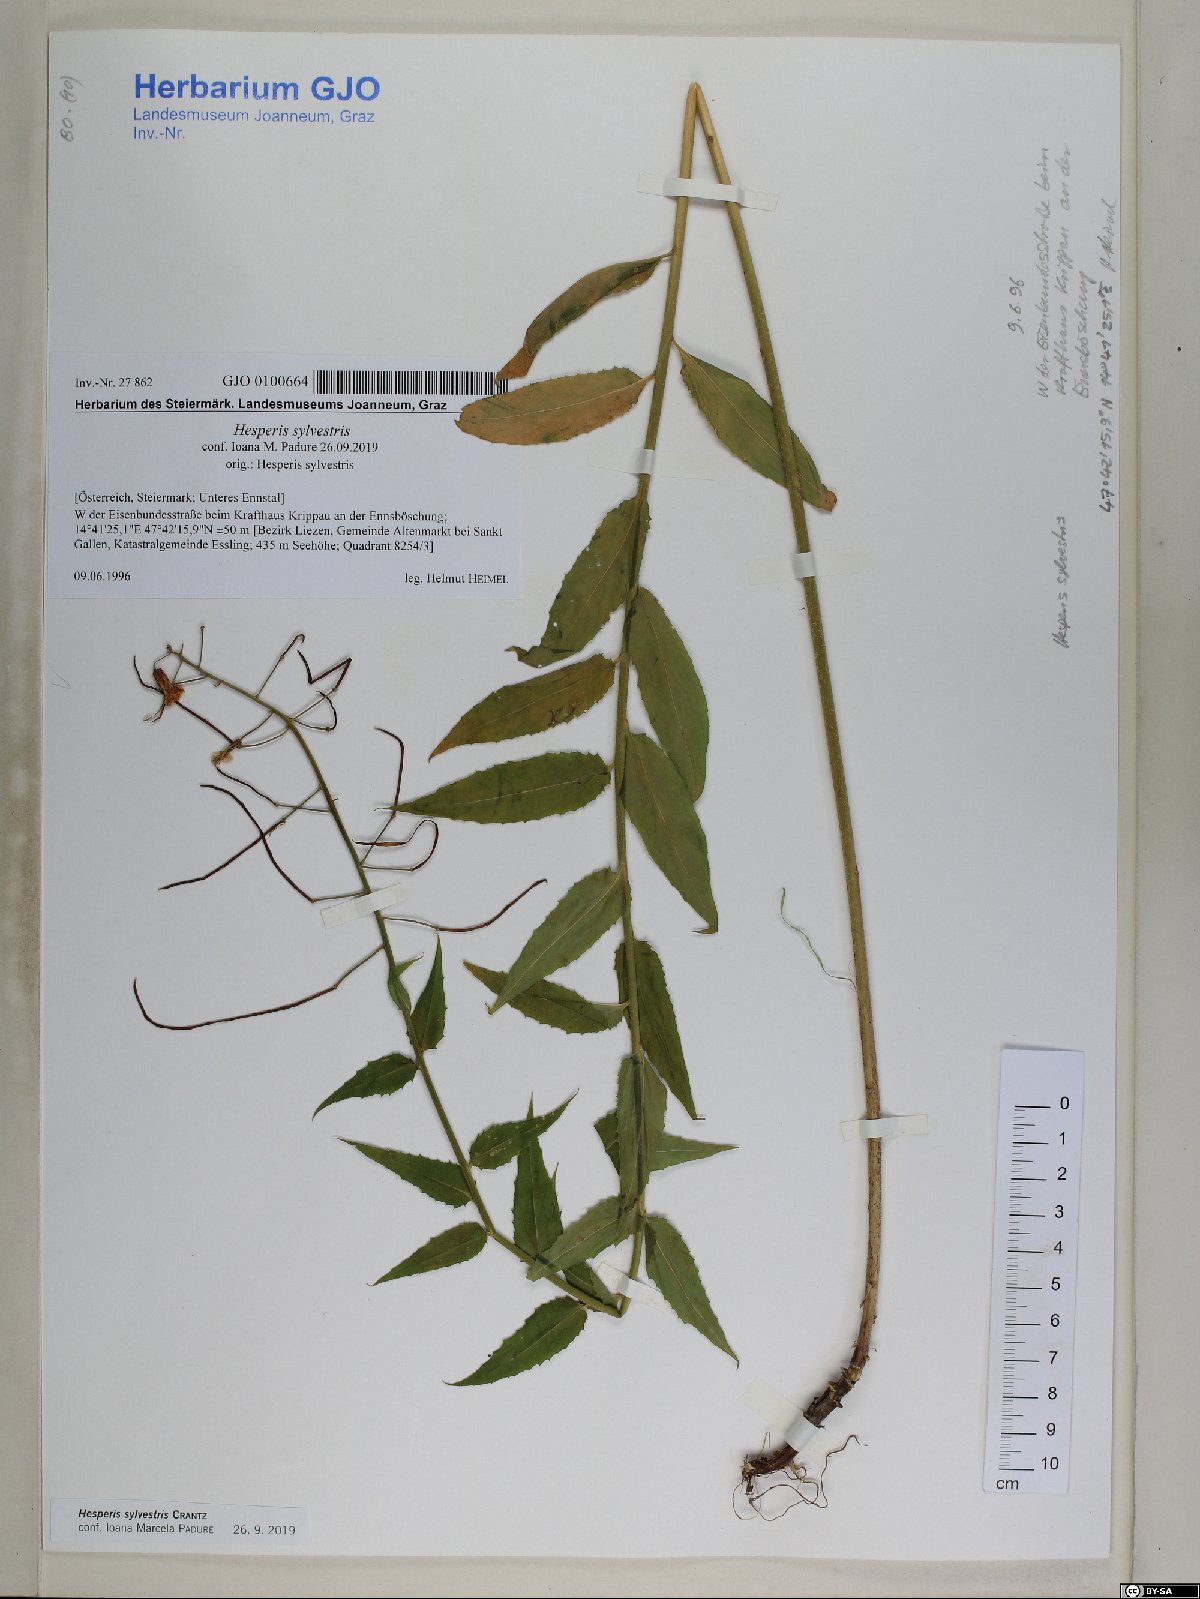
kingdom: Plantae
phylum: Tracheophyta
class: Magnoliopsida
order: Brassicales
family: Brassicaceae
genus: Hesperis
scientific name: Hesperis sylvestris
